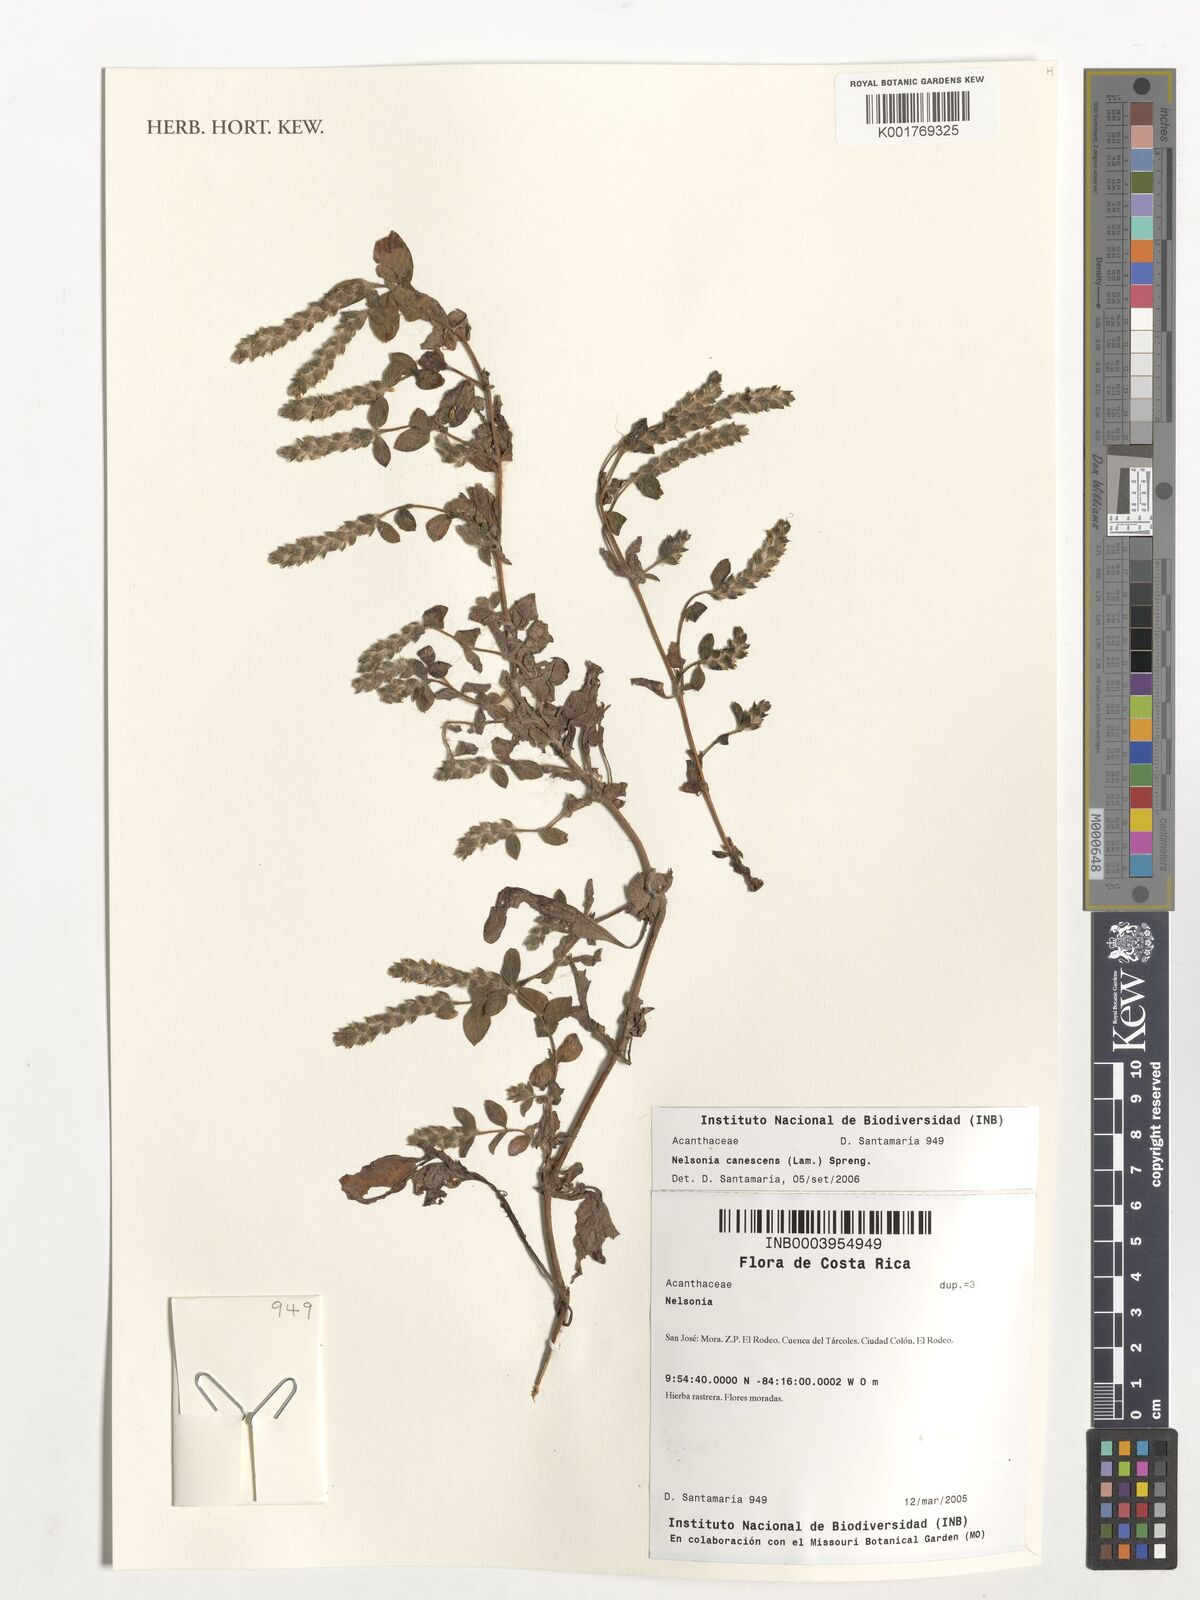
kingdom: Plantae
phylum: Tracheophyta
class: Magnoliopsida
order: Lamiales
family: Acanthaceae
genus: Nelsonia
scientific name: Nelsonia canescens
